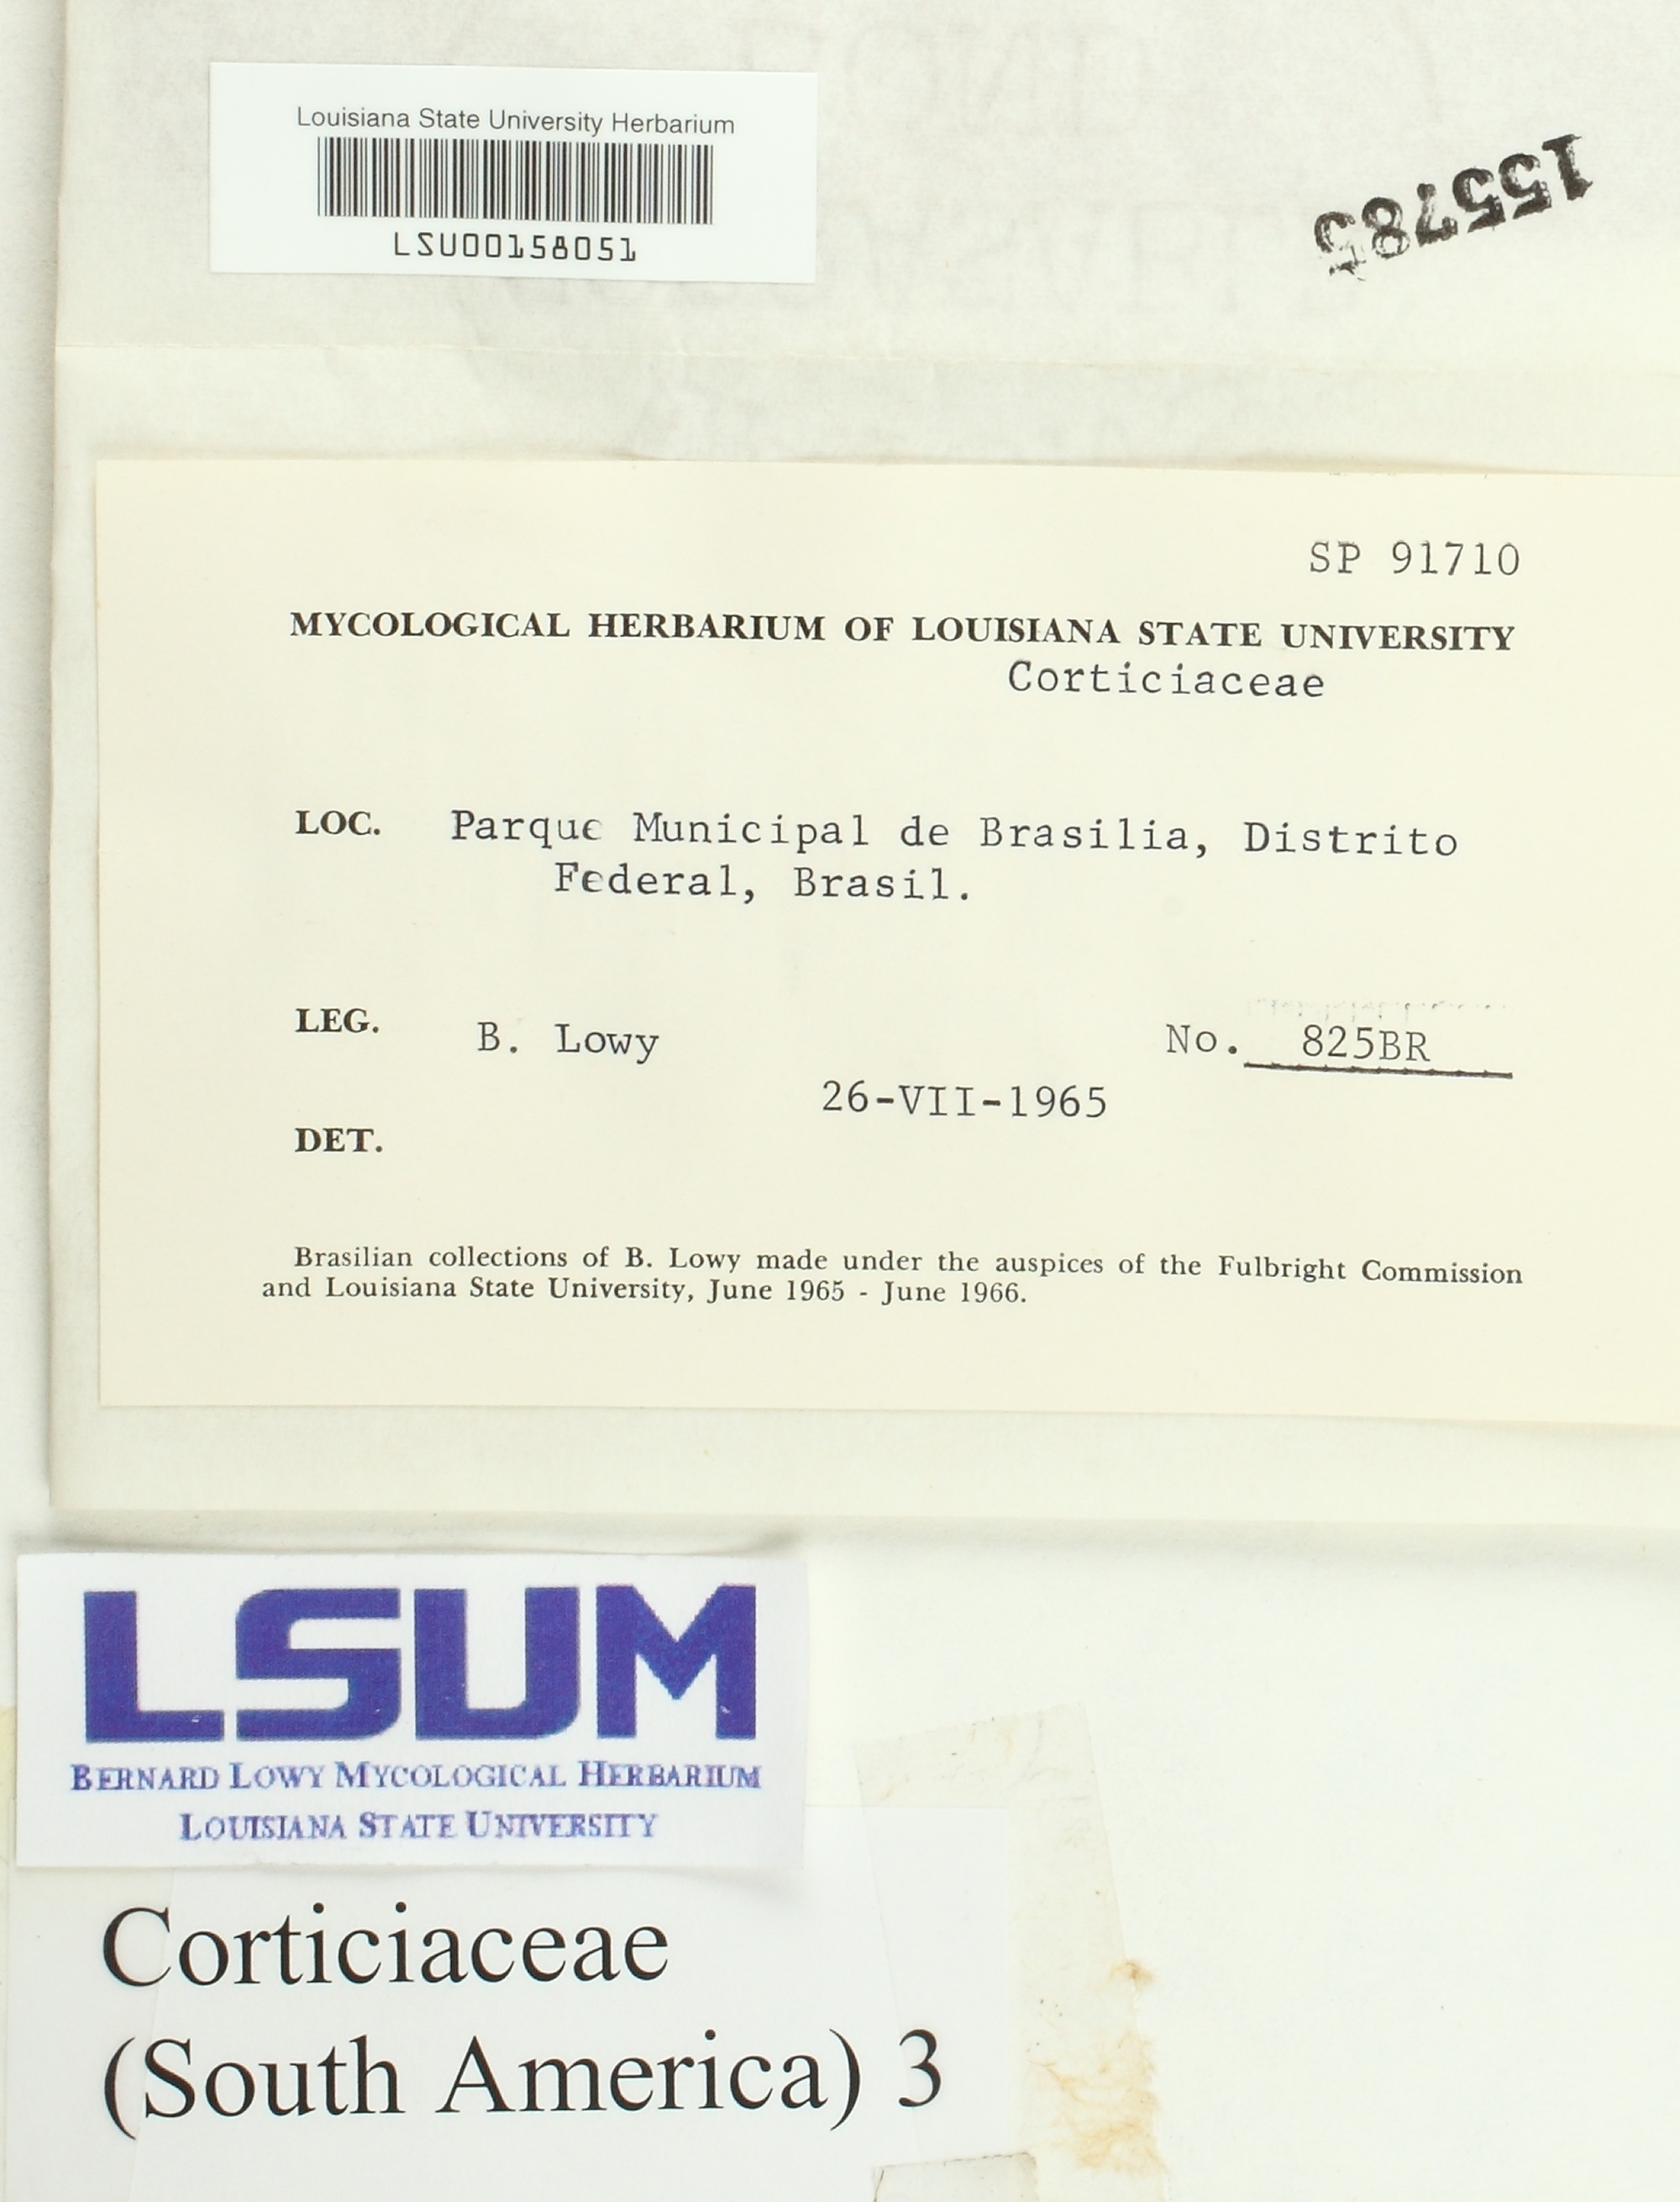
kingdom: Fungi
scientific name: Fungi
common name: Fungi
